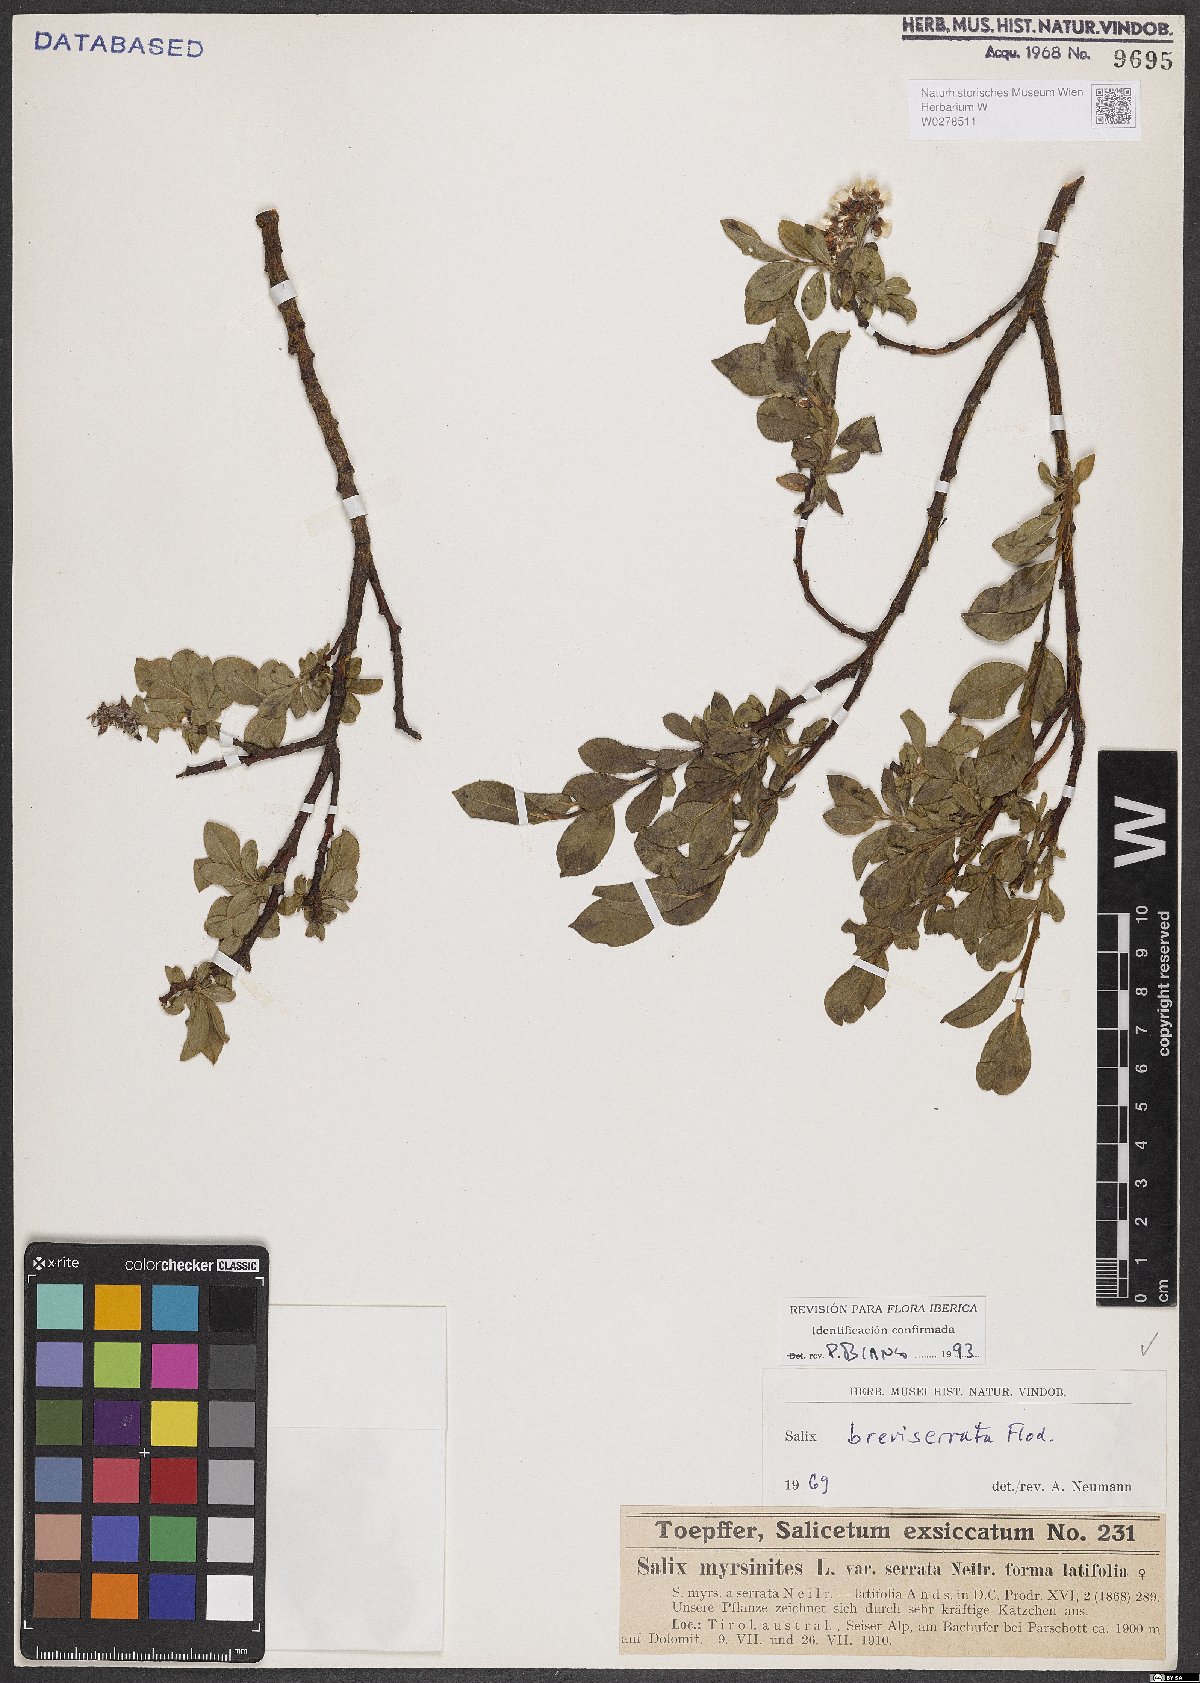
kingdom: Plantae
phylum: Tracheophyta
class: Magnoliopsida
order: Malpighiales
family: Salicaceae
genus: Salix
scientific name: Salix breviserrata
